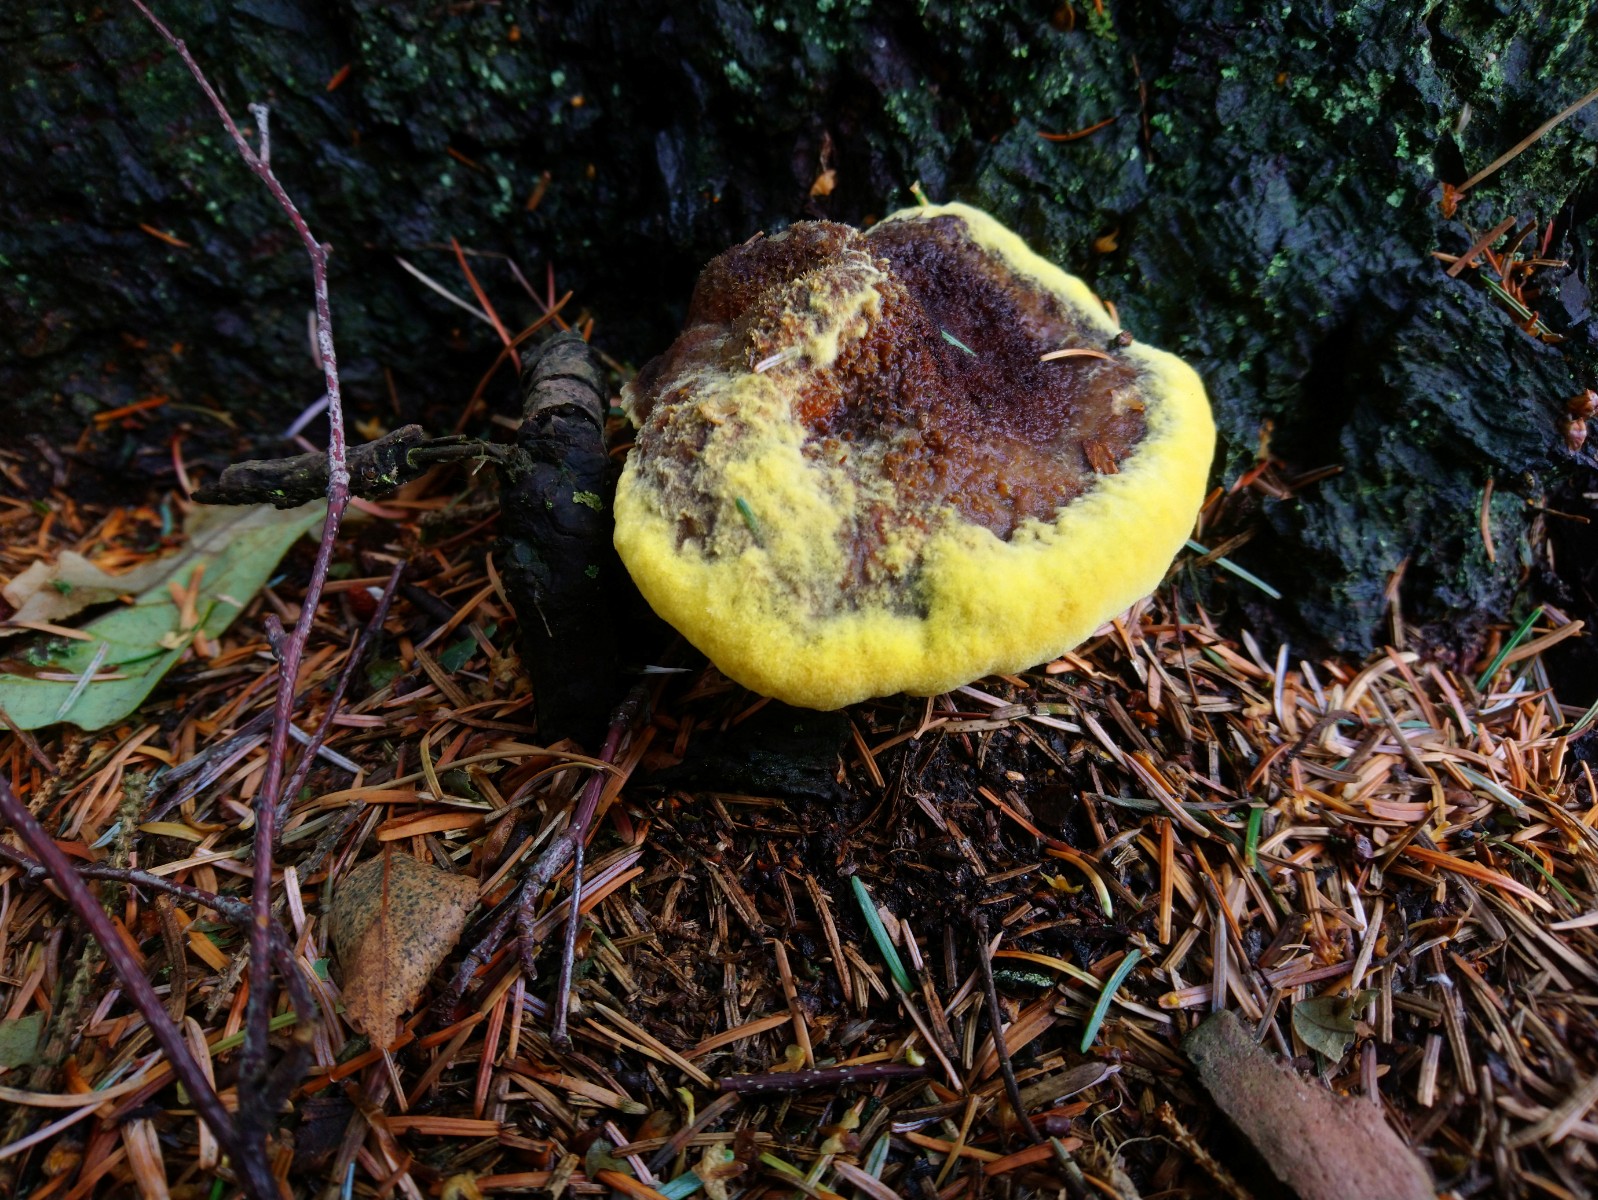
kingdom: Fungi
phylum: Basidiomycota
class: Agaricomycetes
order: Polyporales
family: Laetiporaceae
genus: Phaeolus
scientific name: Phaeolus schweinitzii
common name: brunporesvamp
